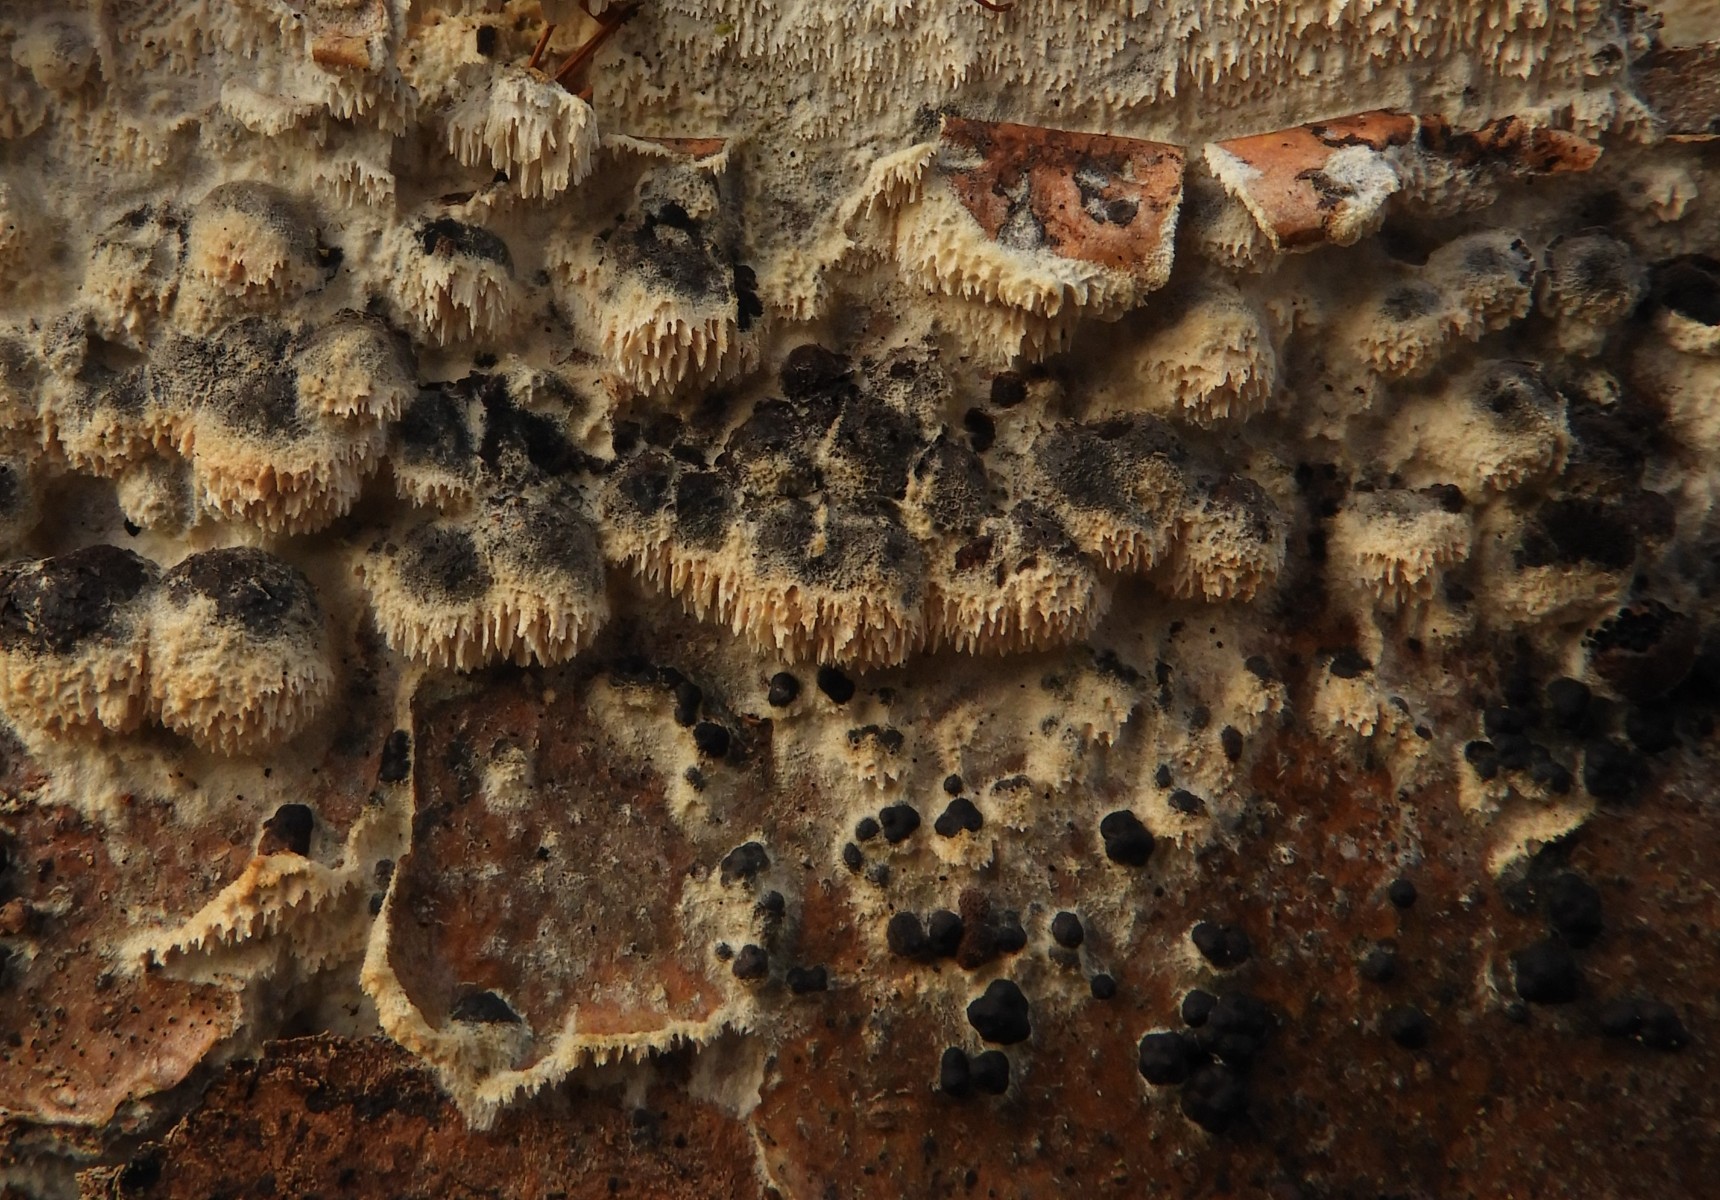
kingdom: Fungi
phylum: Basidiomycota
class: Agaricomycetes
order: Hymenochaetales
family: Schizoporaceae
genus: Xylodon
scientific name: Xylodon
